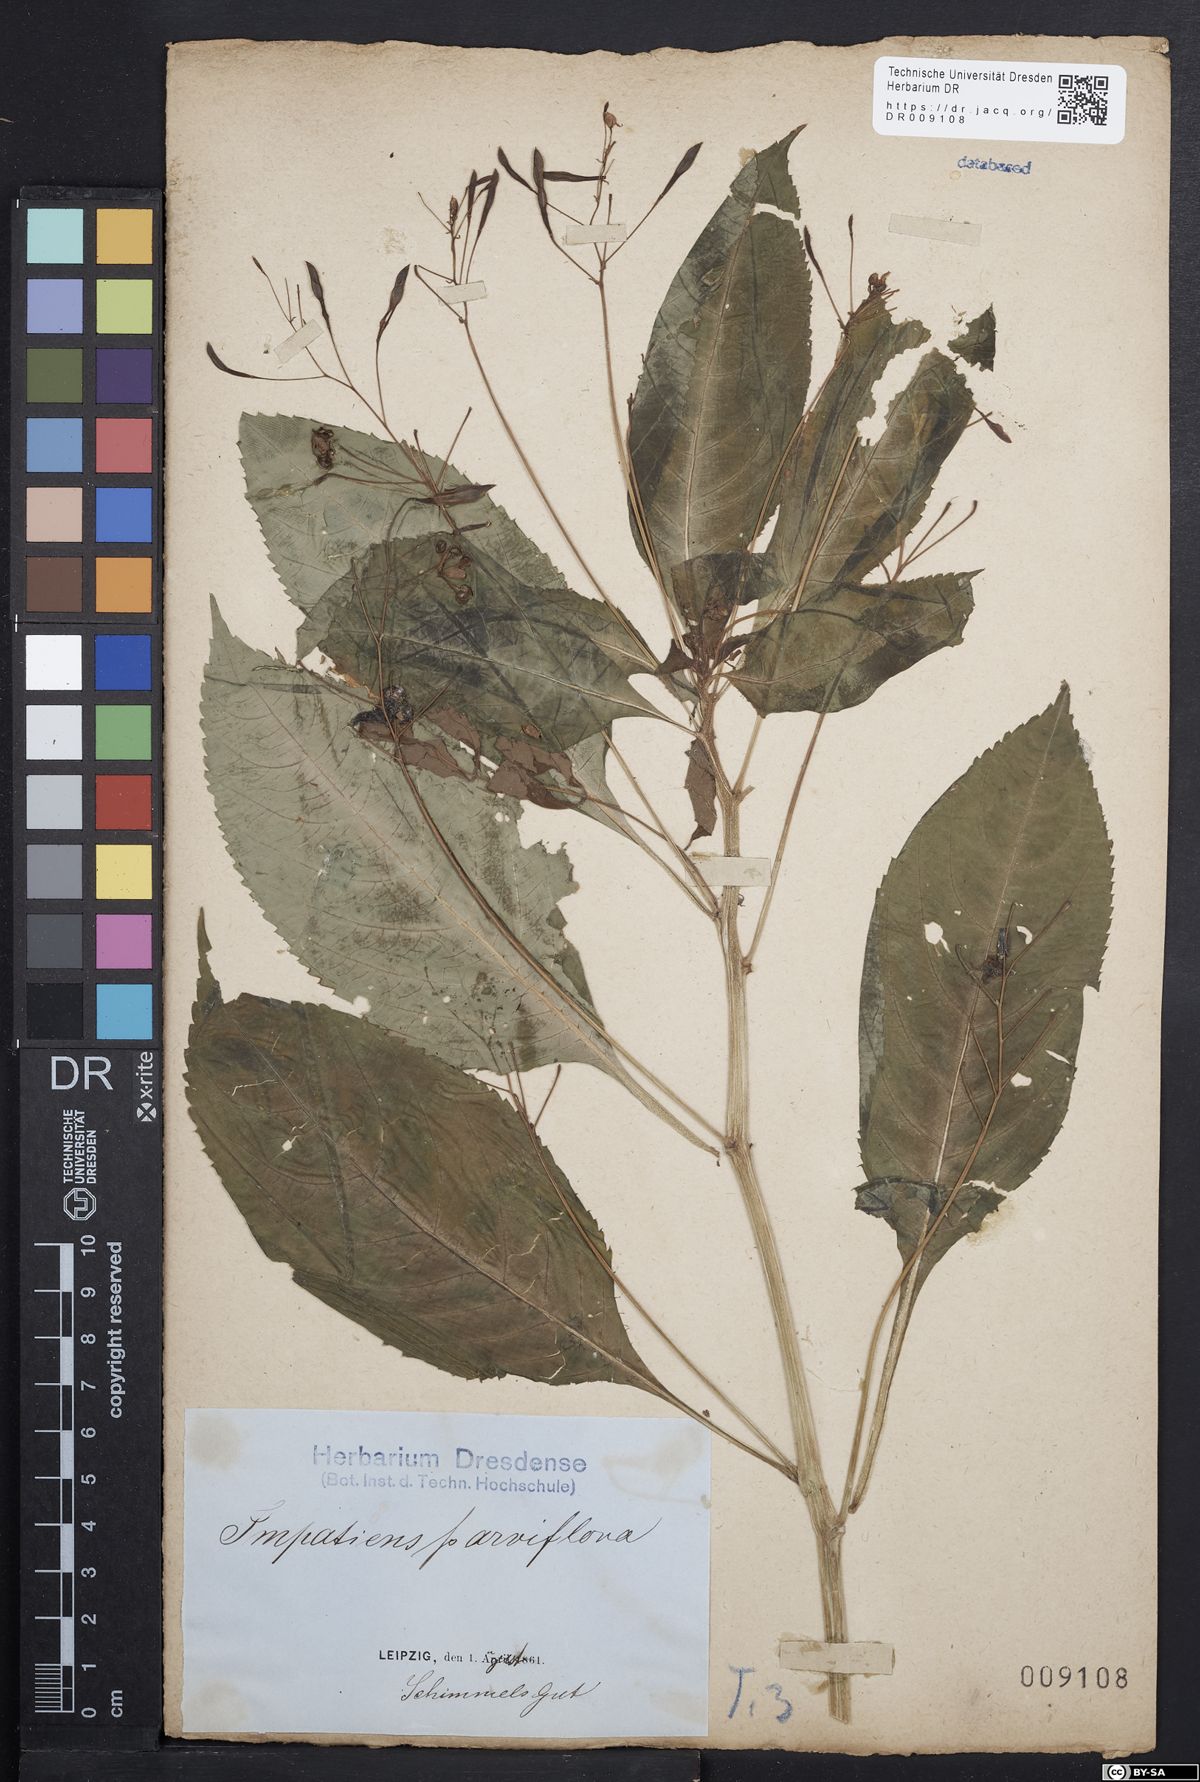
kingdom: Plantae
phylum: Tracheophyta
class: Magnoliopsida
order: Ericales
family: Balsaminaceae
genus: Impatiens
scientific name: Impatiens parviflora
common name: Small balsam
